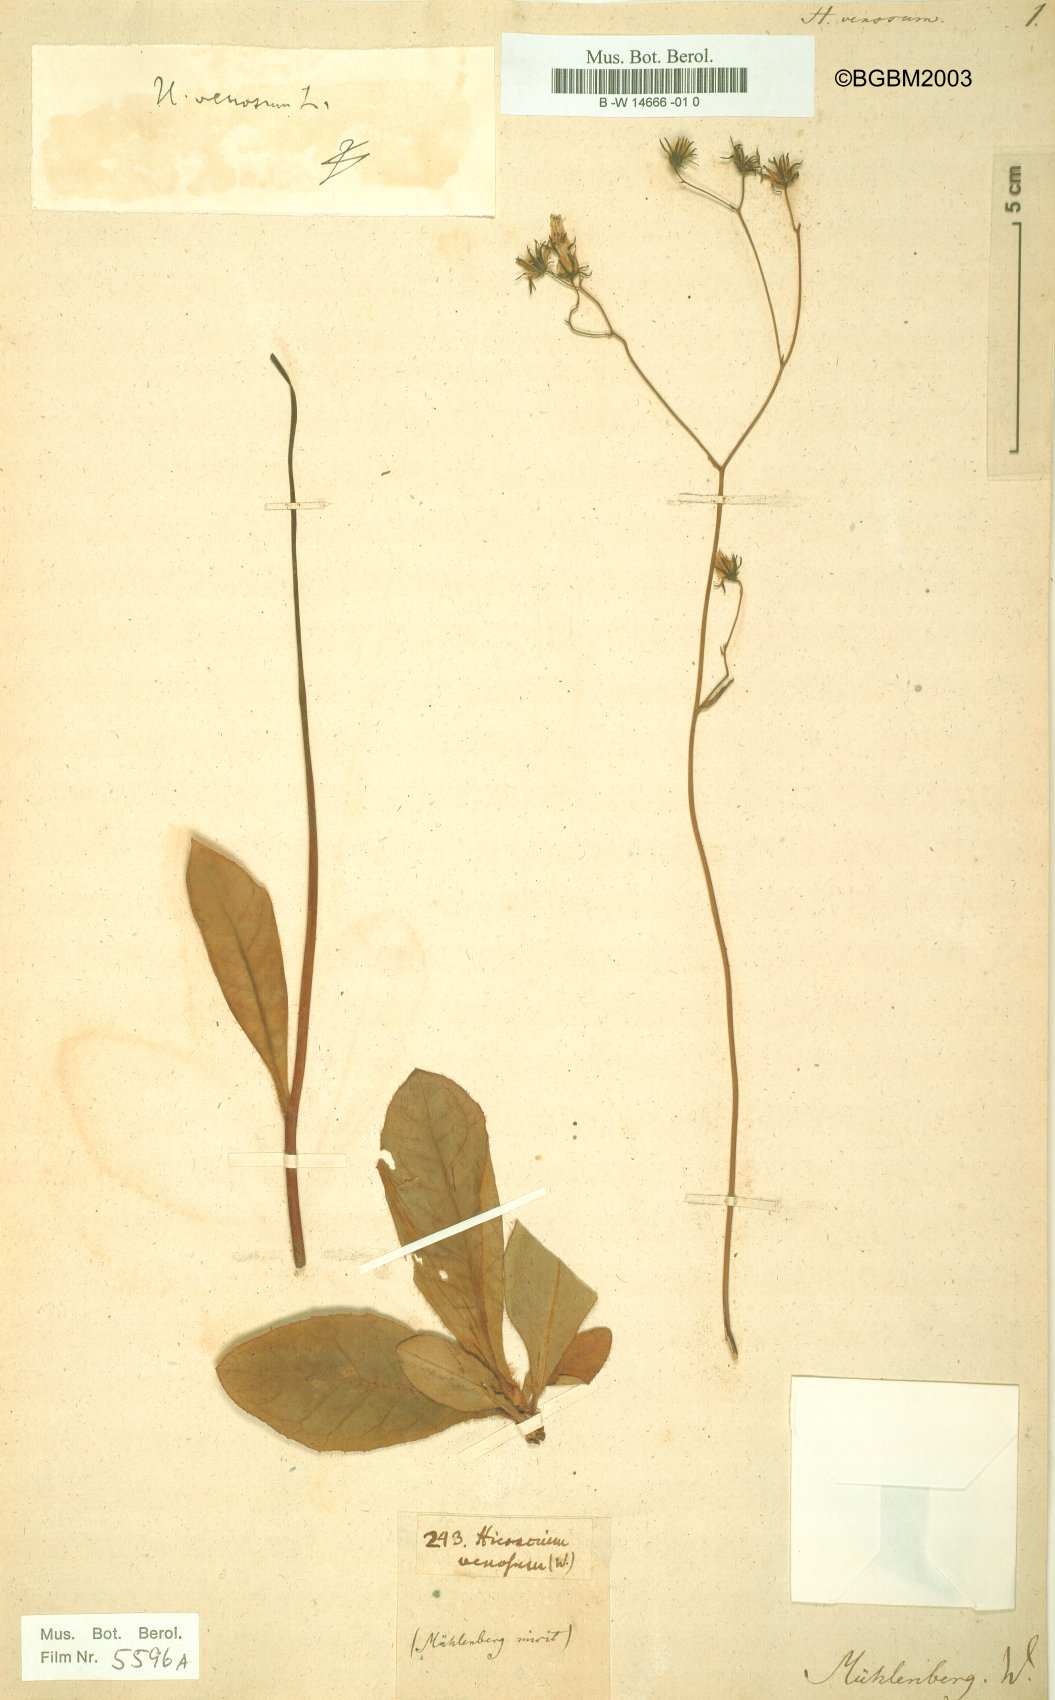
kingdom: Plantae
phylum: Tracheophyta
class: Magnoliopsida
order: Asterales
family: Asteraceae
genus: Hieracium
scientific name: Hieracium venosum
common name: Rattlesnake hawkweed
